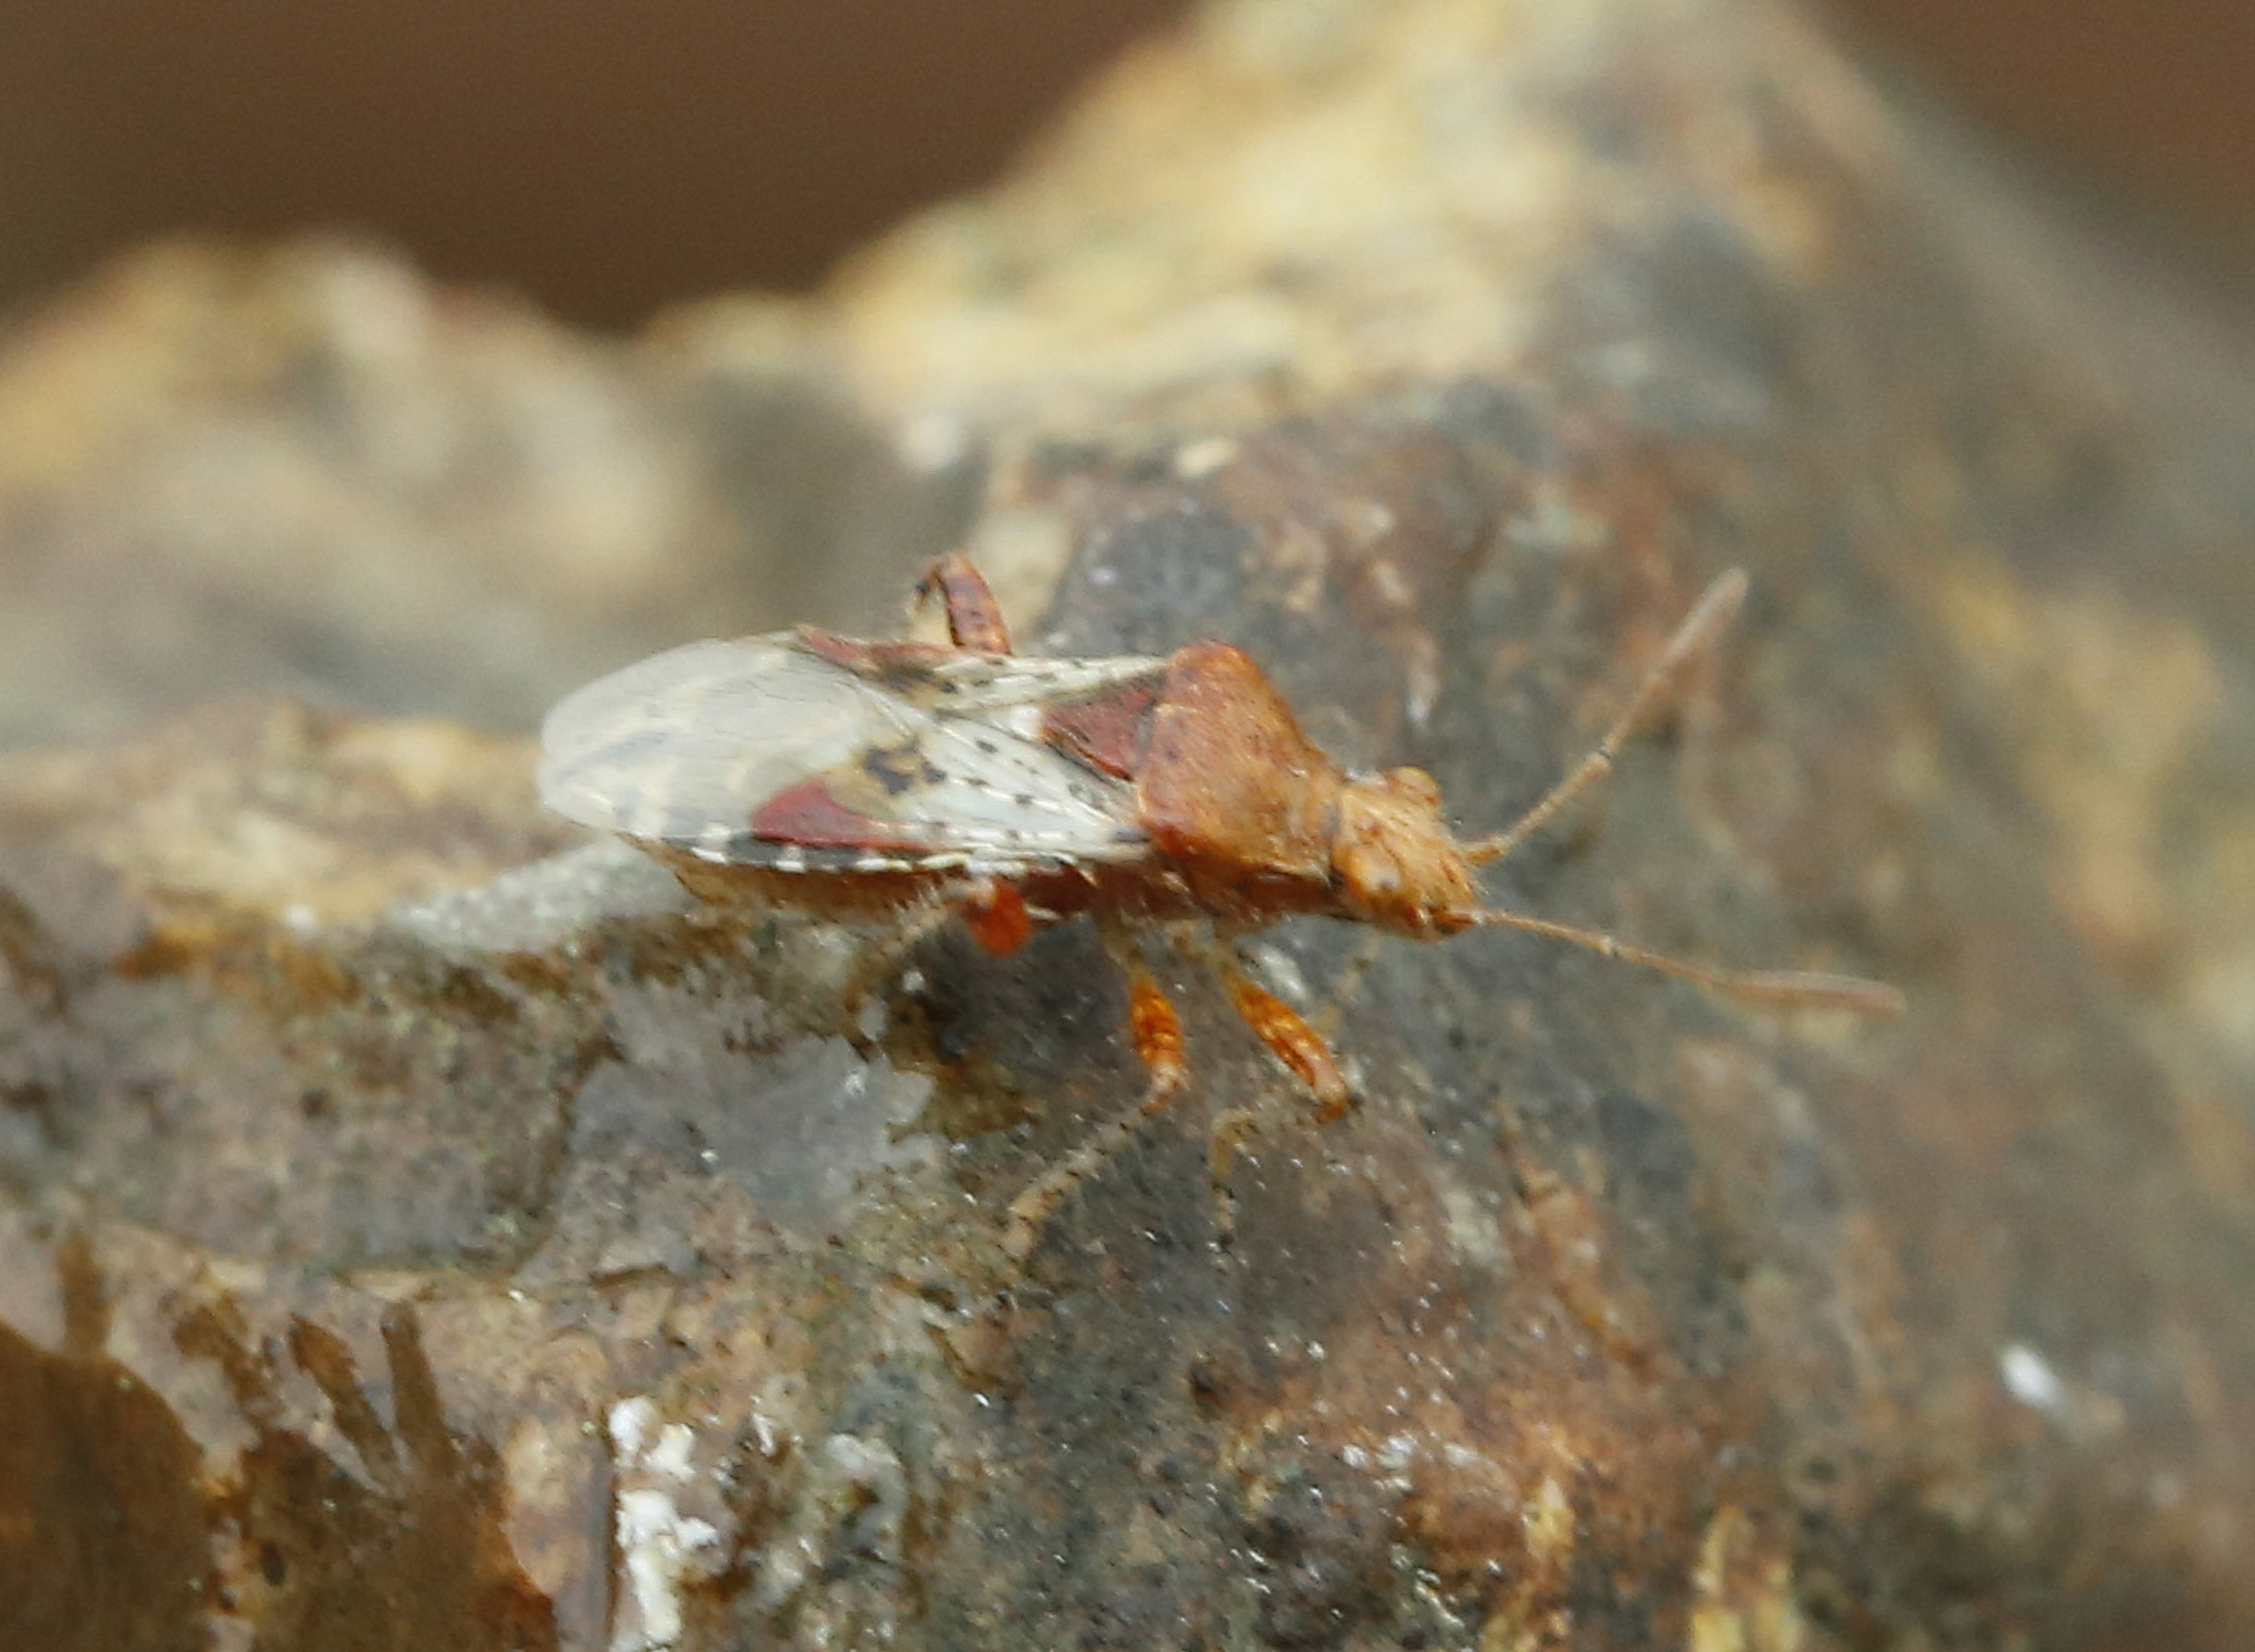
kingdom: Animalia
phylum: Arthropoda
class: Insecta
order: Hemiptera
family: Rhopalidae
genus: Rhopalus
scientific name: Rhopalus subrufus
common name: Skovkanttæge
